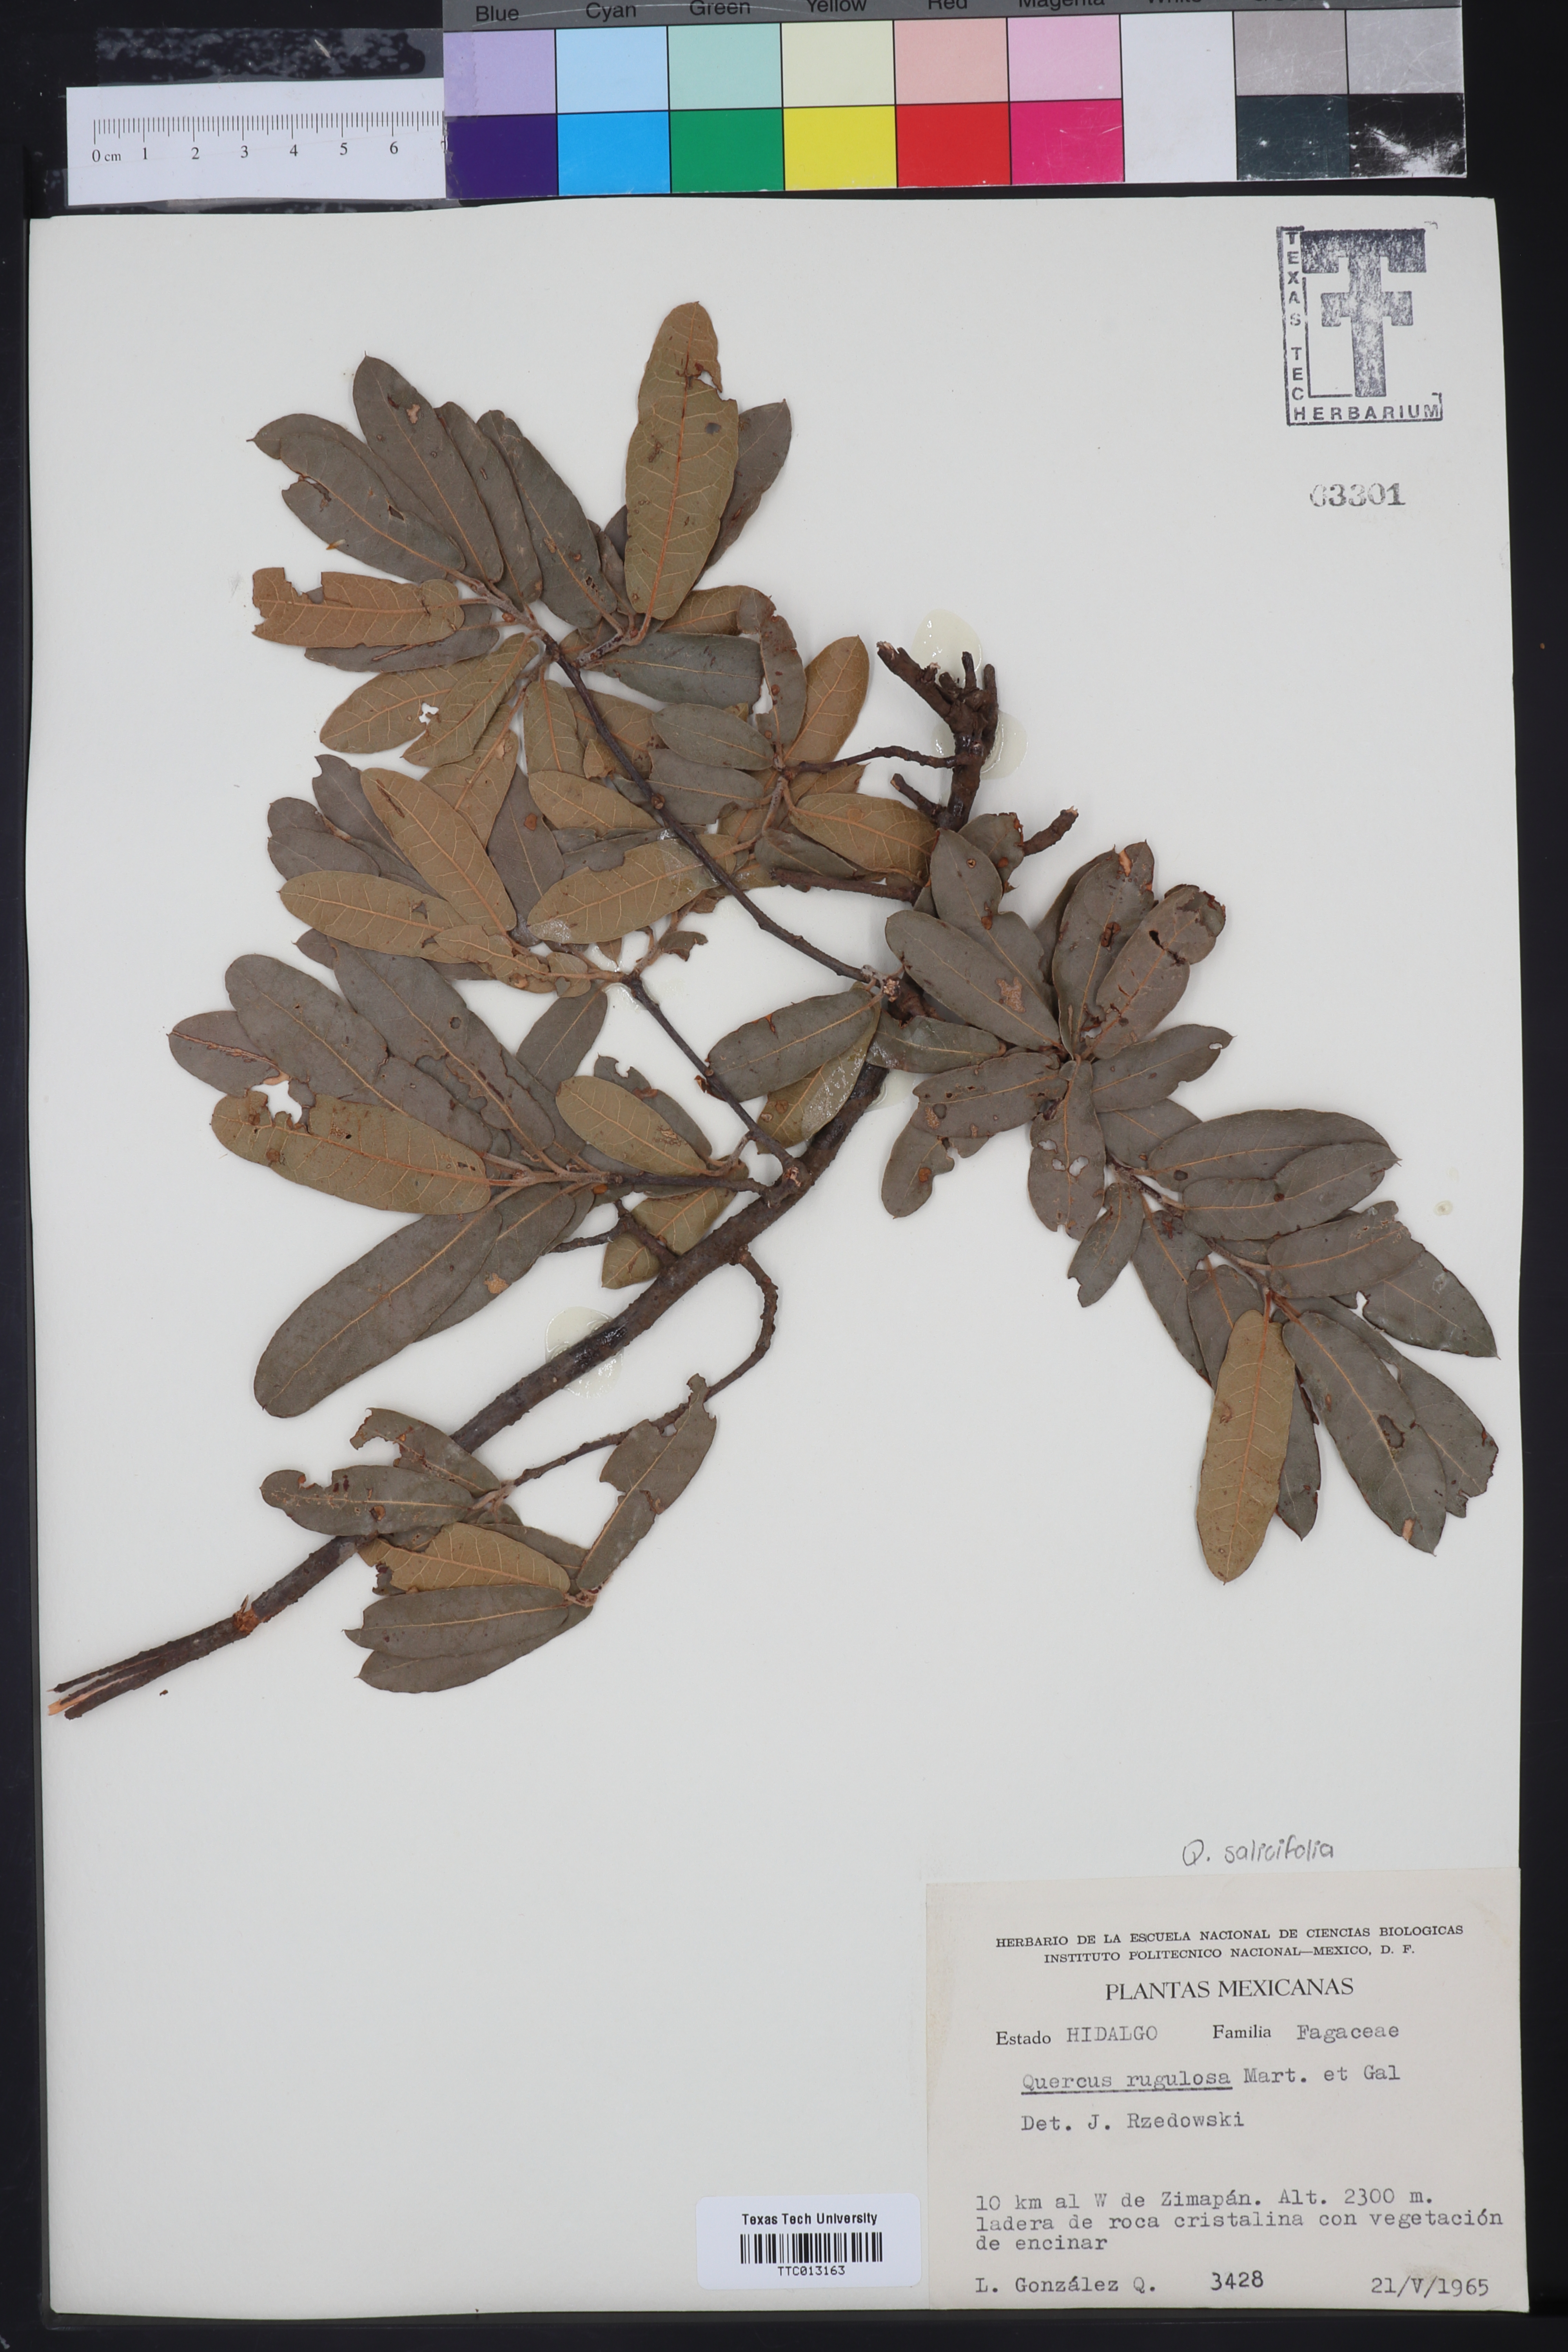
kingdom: Plantae
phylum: Tracheophyta
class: Magnoliopsida
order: Fagales
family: Fagaceae
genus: Quercus
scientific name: Quercus mexicana
